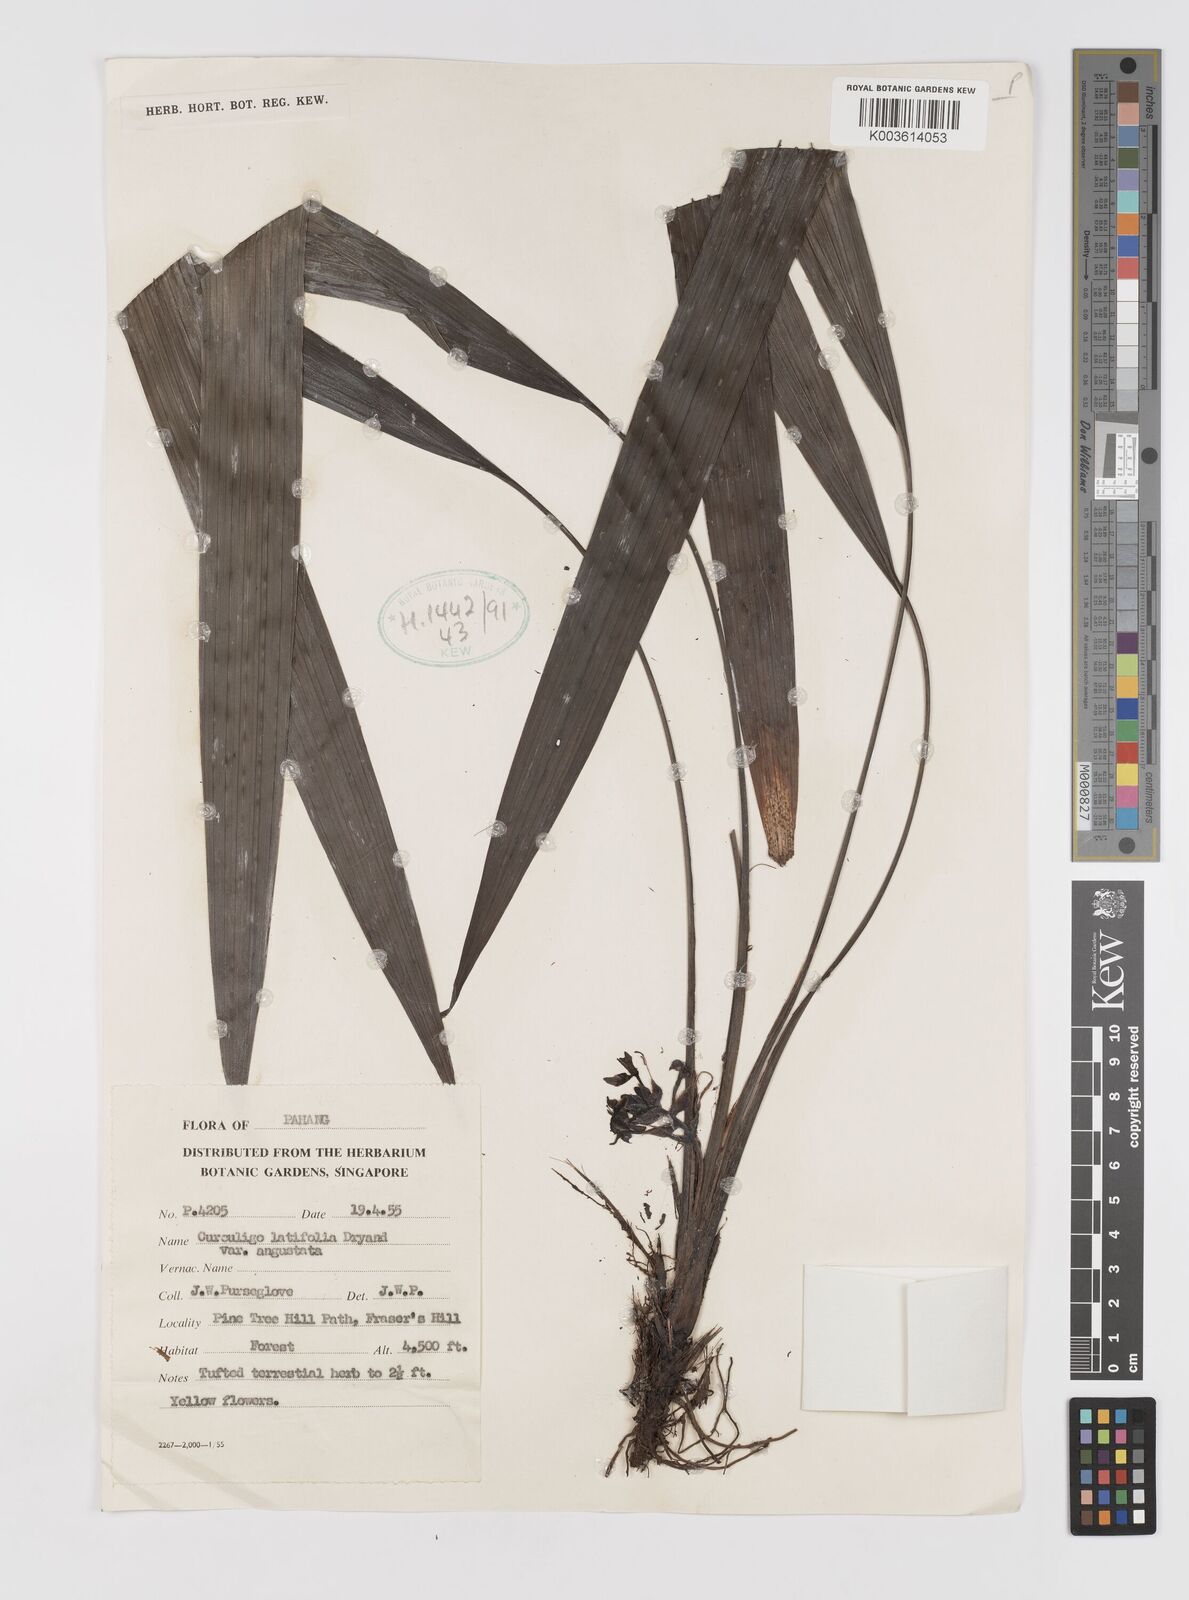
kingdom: Plantae
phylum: Tracheophyta
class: Liliopsida
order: Asparagales
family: Hypoxidaceae
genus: Curculigo
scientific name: Curculigo latifolia
